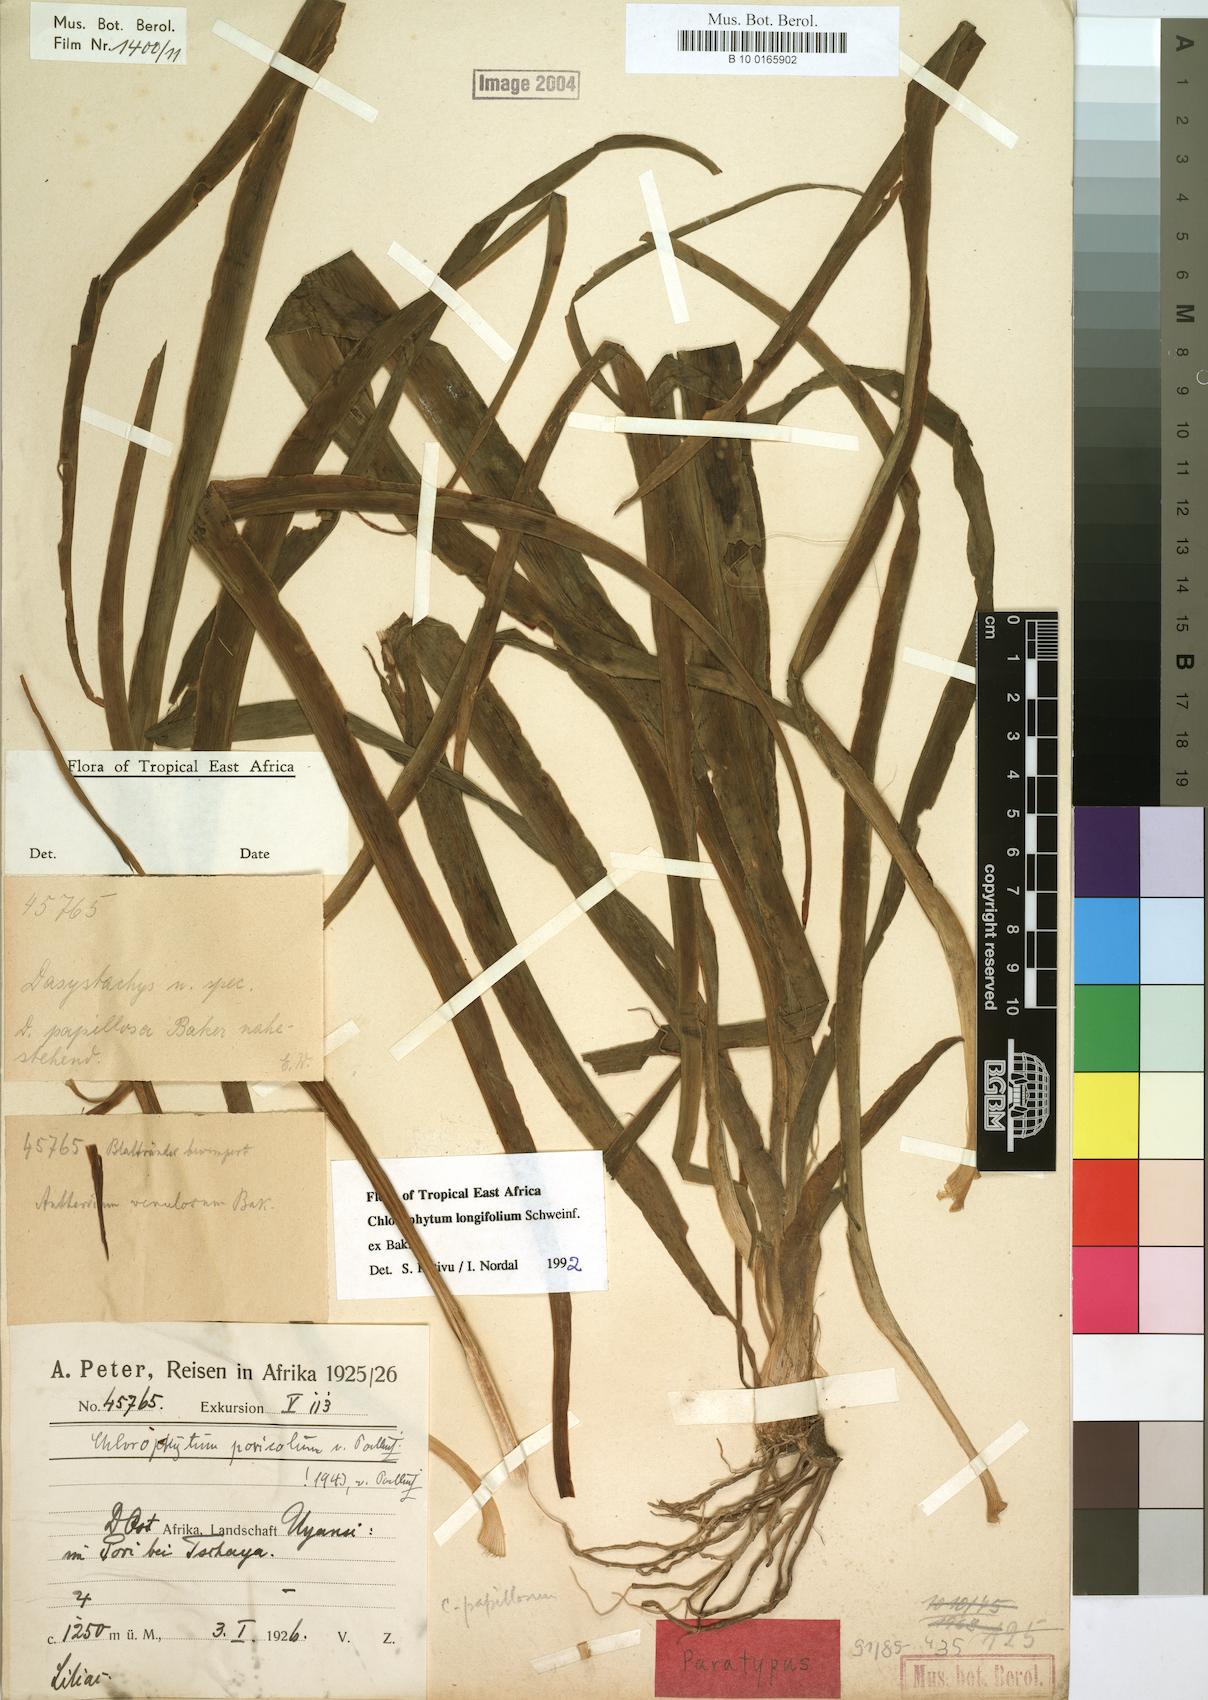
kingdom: Plantae
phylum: Tracheophyta
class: Liliopsida
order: Asparagales
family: Asparagaceae
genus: Chlorophytum
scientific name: Chlorophytum longifolium
